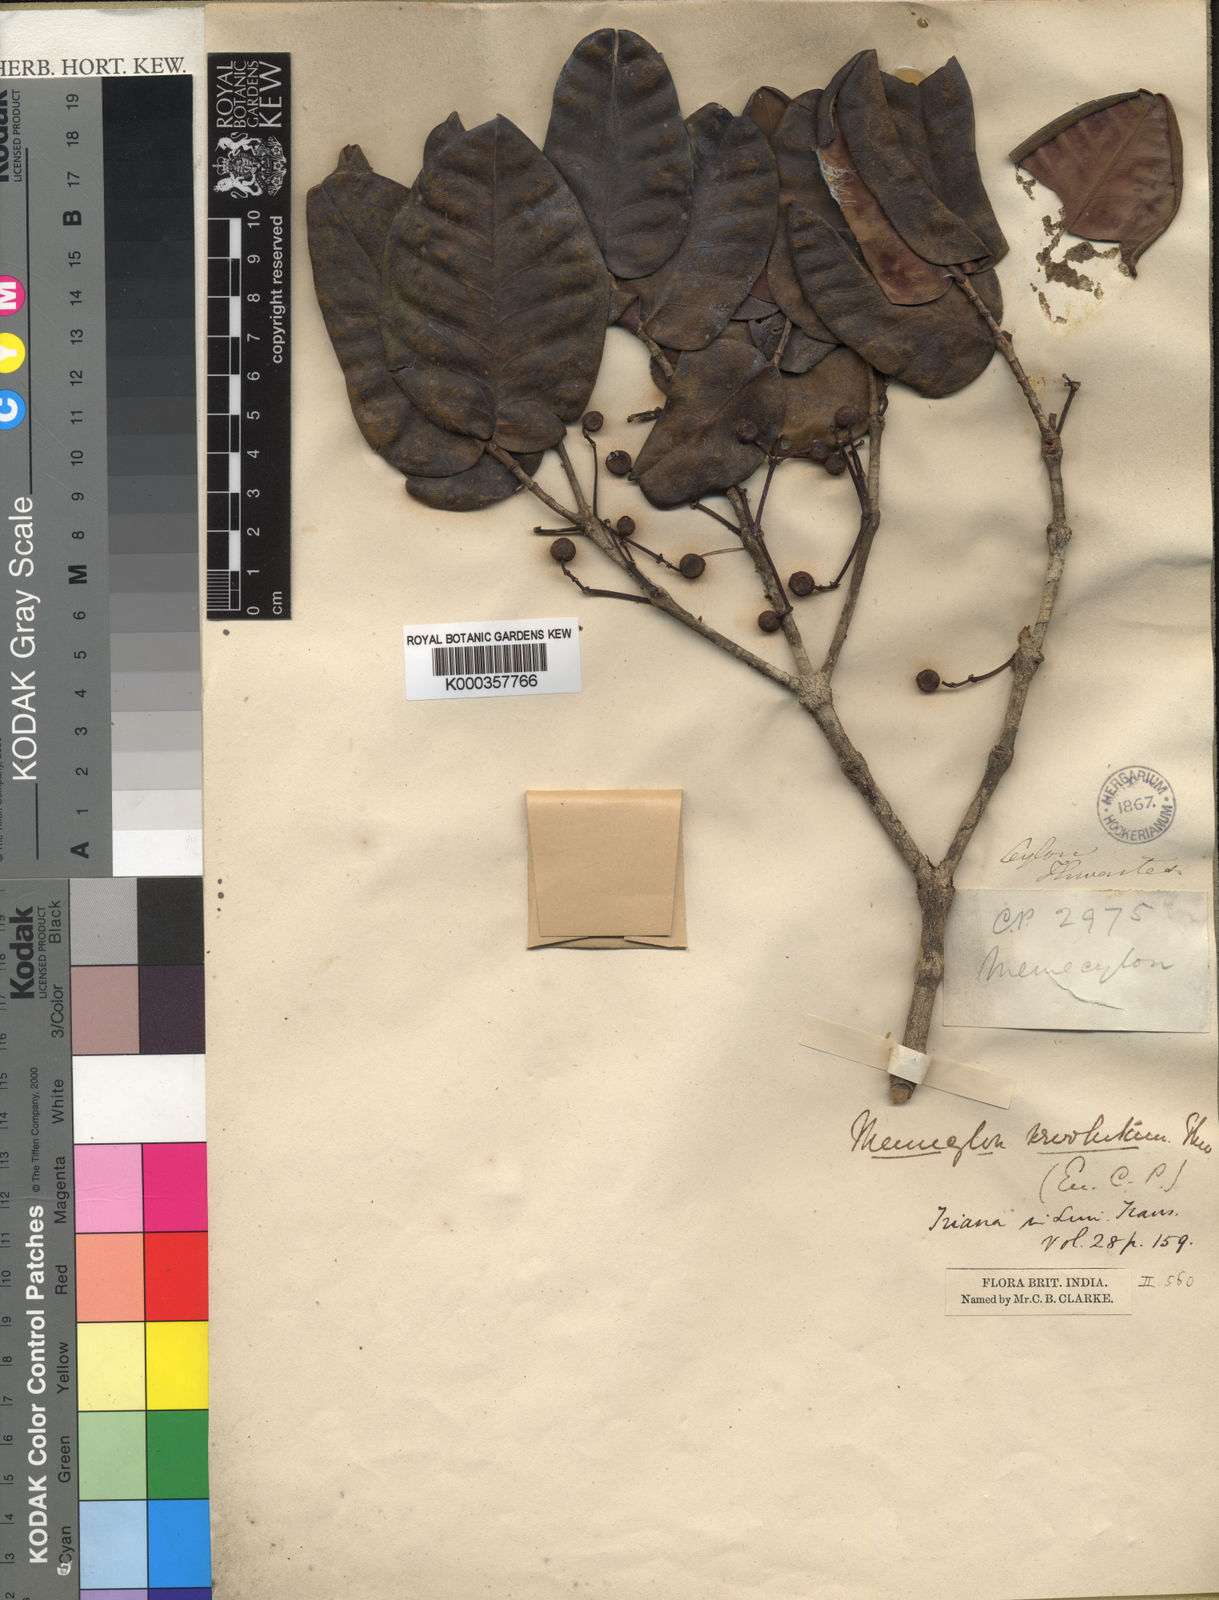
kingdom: Plantae
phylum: Tracheophyta
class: Magnoliopsida
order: Myrtales
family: Melastomataceae
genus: Memecylon
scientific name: Memecylon revolutum
